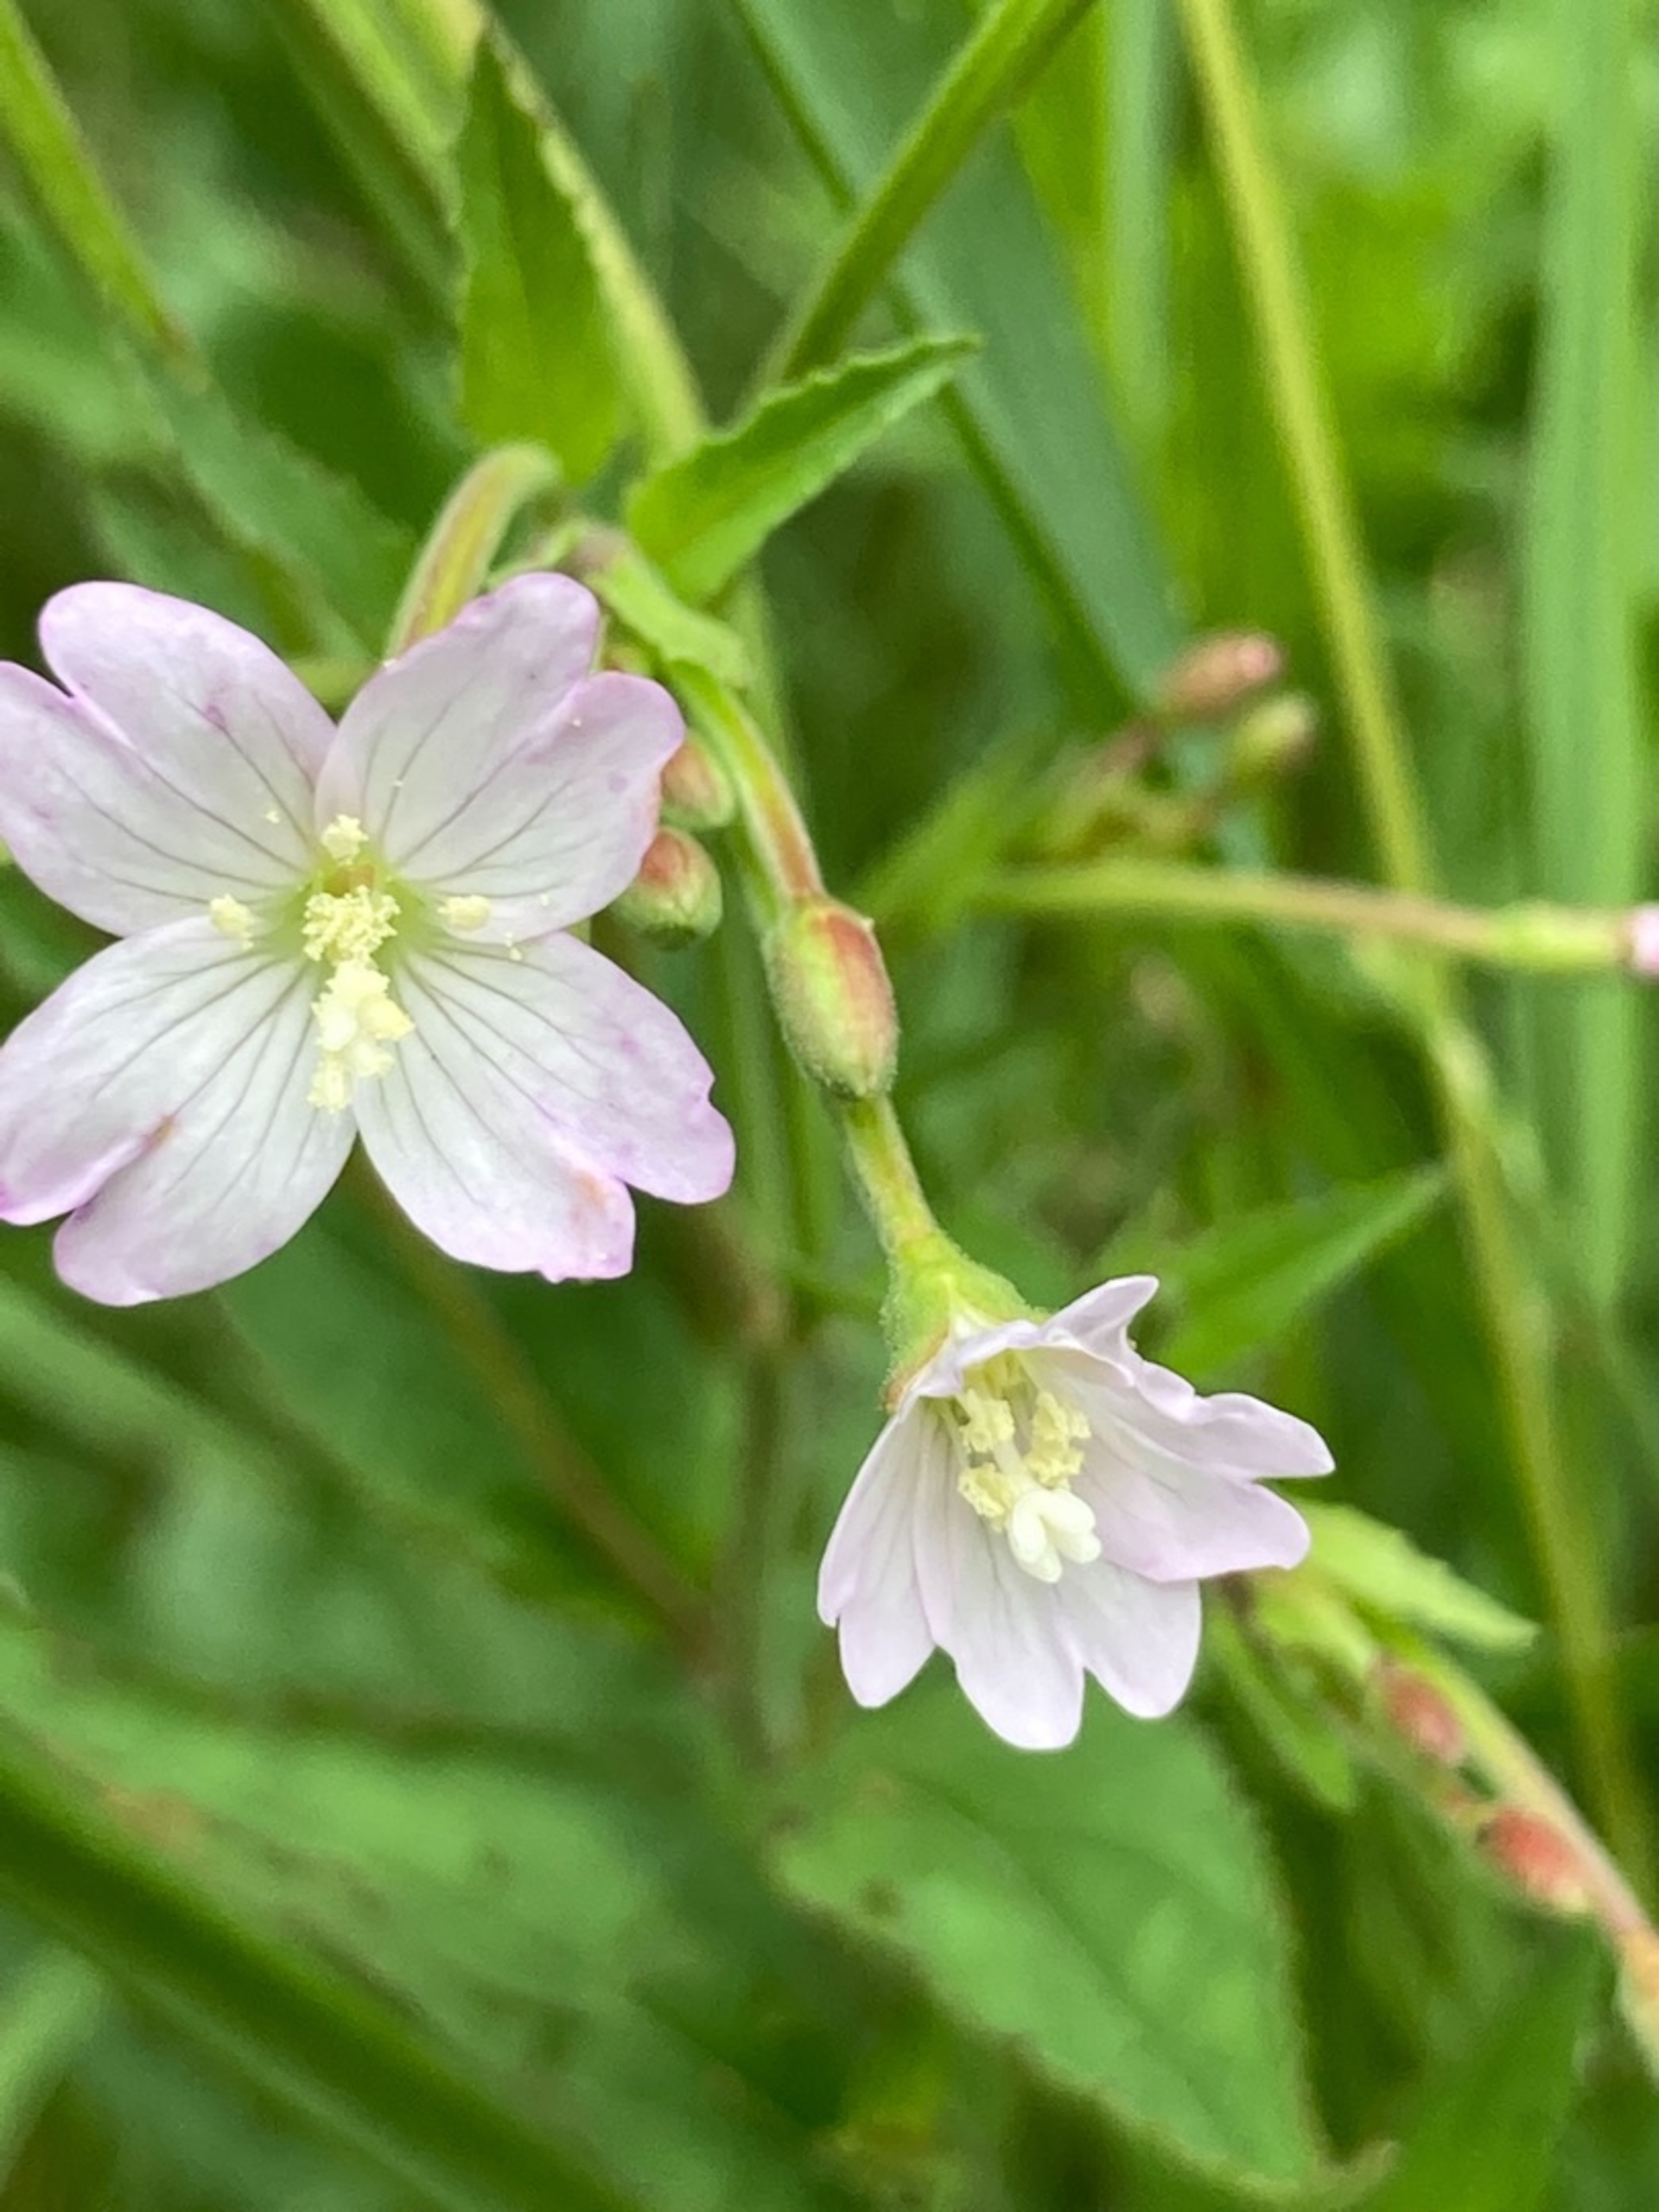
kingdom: Plantae
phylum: Tracheophyta
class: Magnoliopsida
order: Myrtales
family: Onagraceae
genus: Epilobium
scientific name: Epilobium montanum
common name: Glat dueurt
